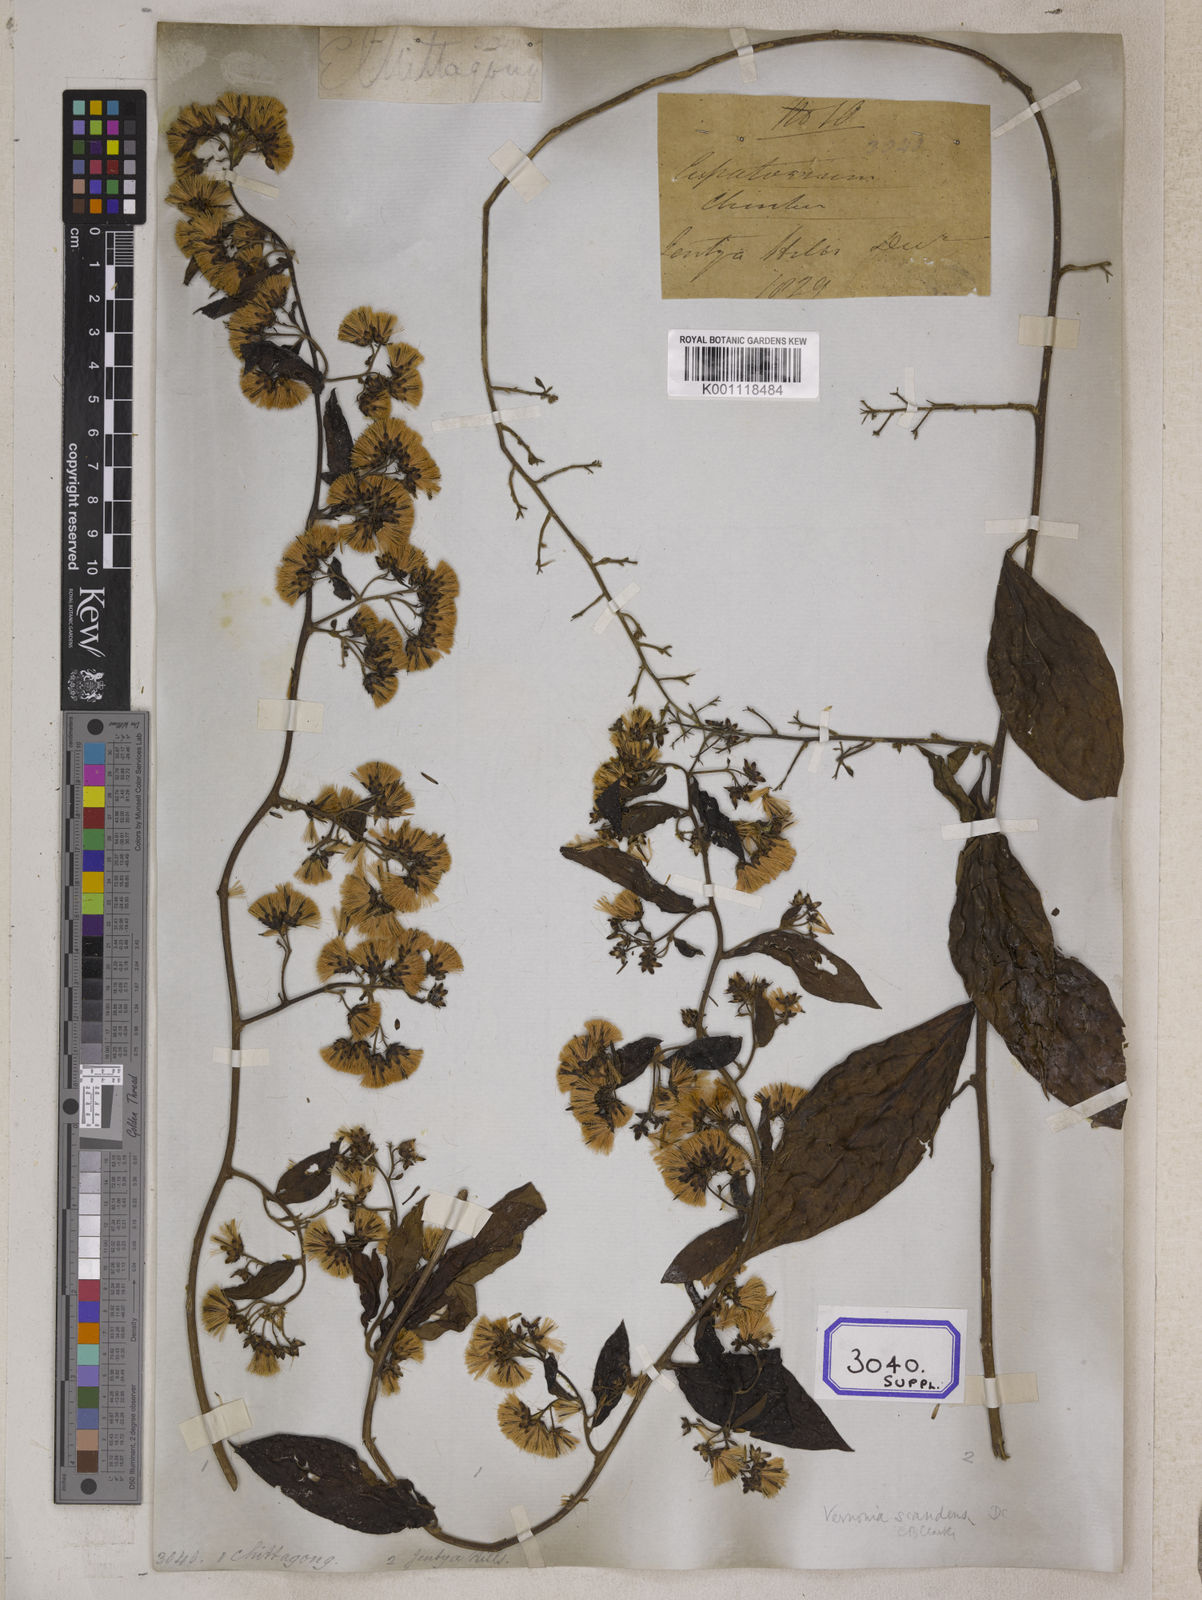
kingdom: Plantae
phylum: Tracheophyta
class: Magnoliopsida
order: Asterales
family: Asteraceae
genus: Decaneuropsis
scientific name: Decaneuropsis vagans
